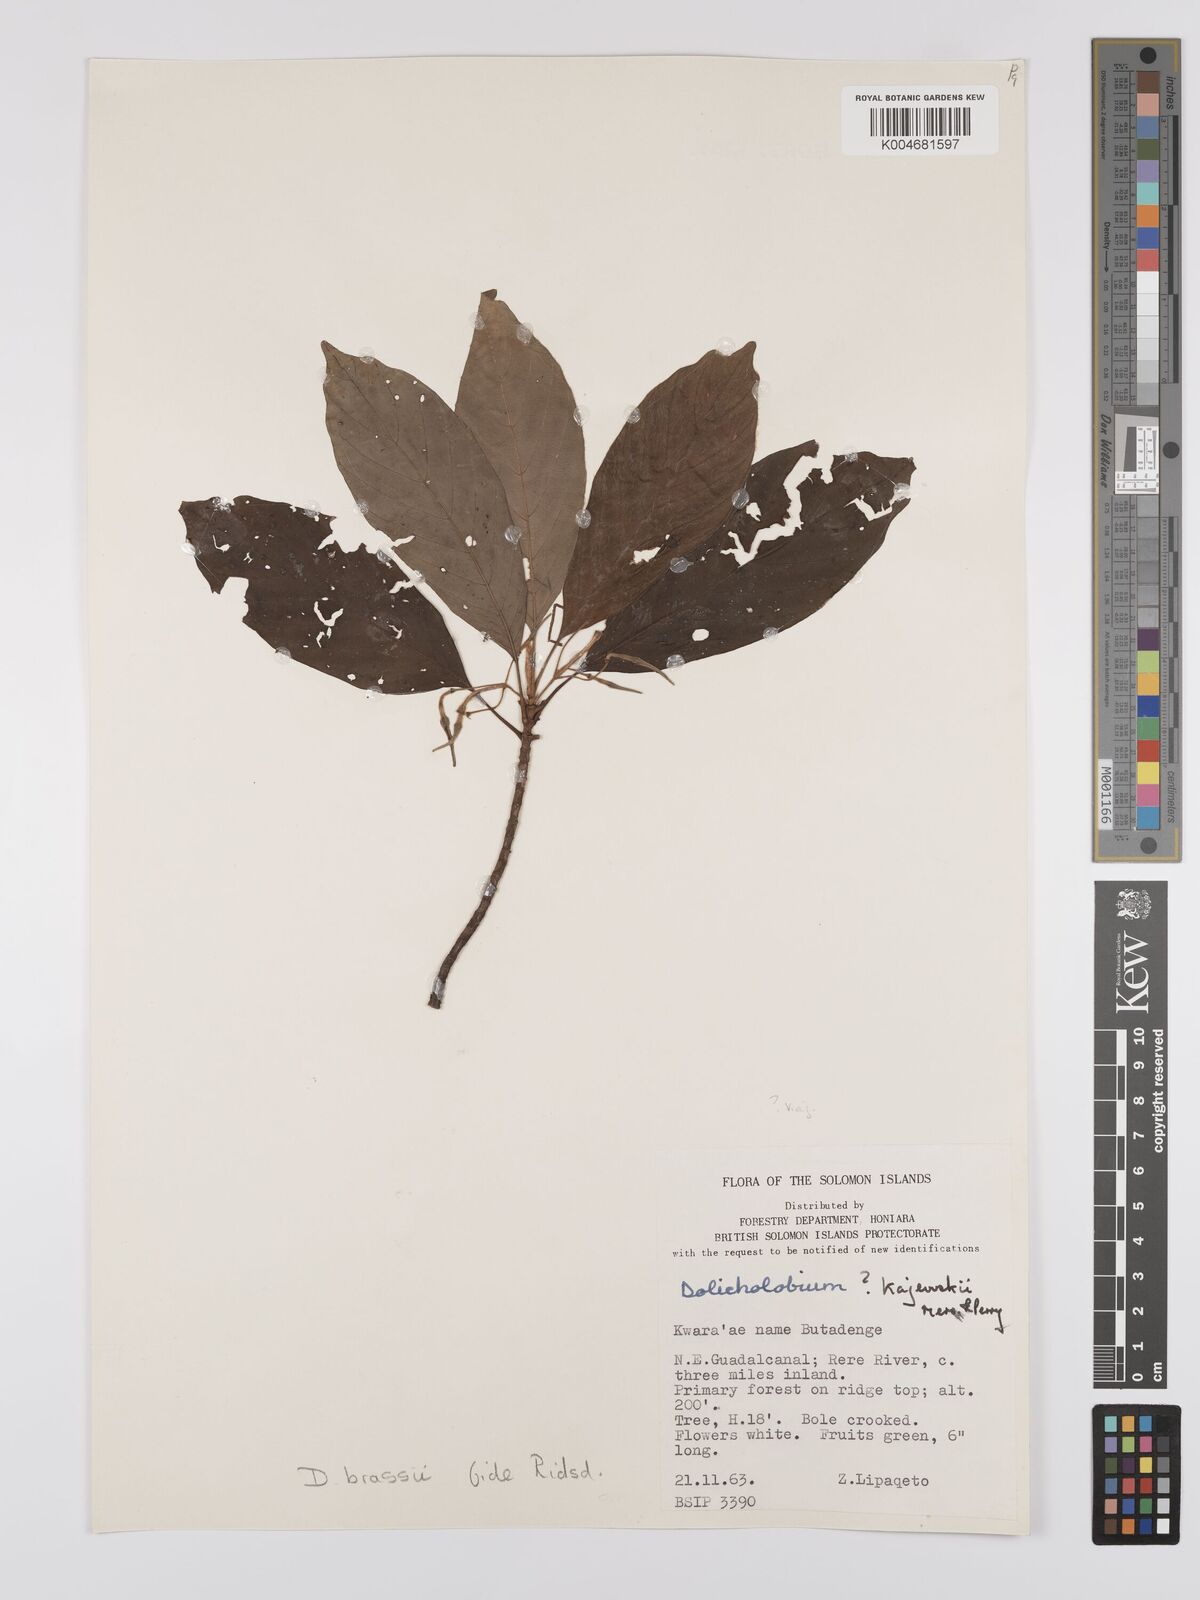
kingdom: Plantae
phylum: Tracheophyta
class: Magnoliopsida
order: Gentianales
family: Rubiaceae
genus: Dolicholobium
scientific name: Dolicholobium brassii
